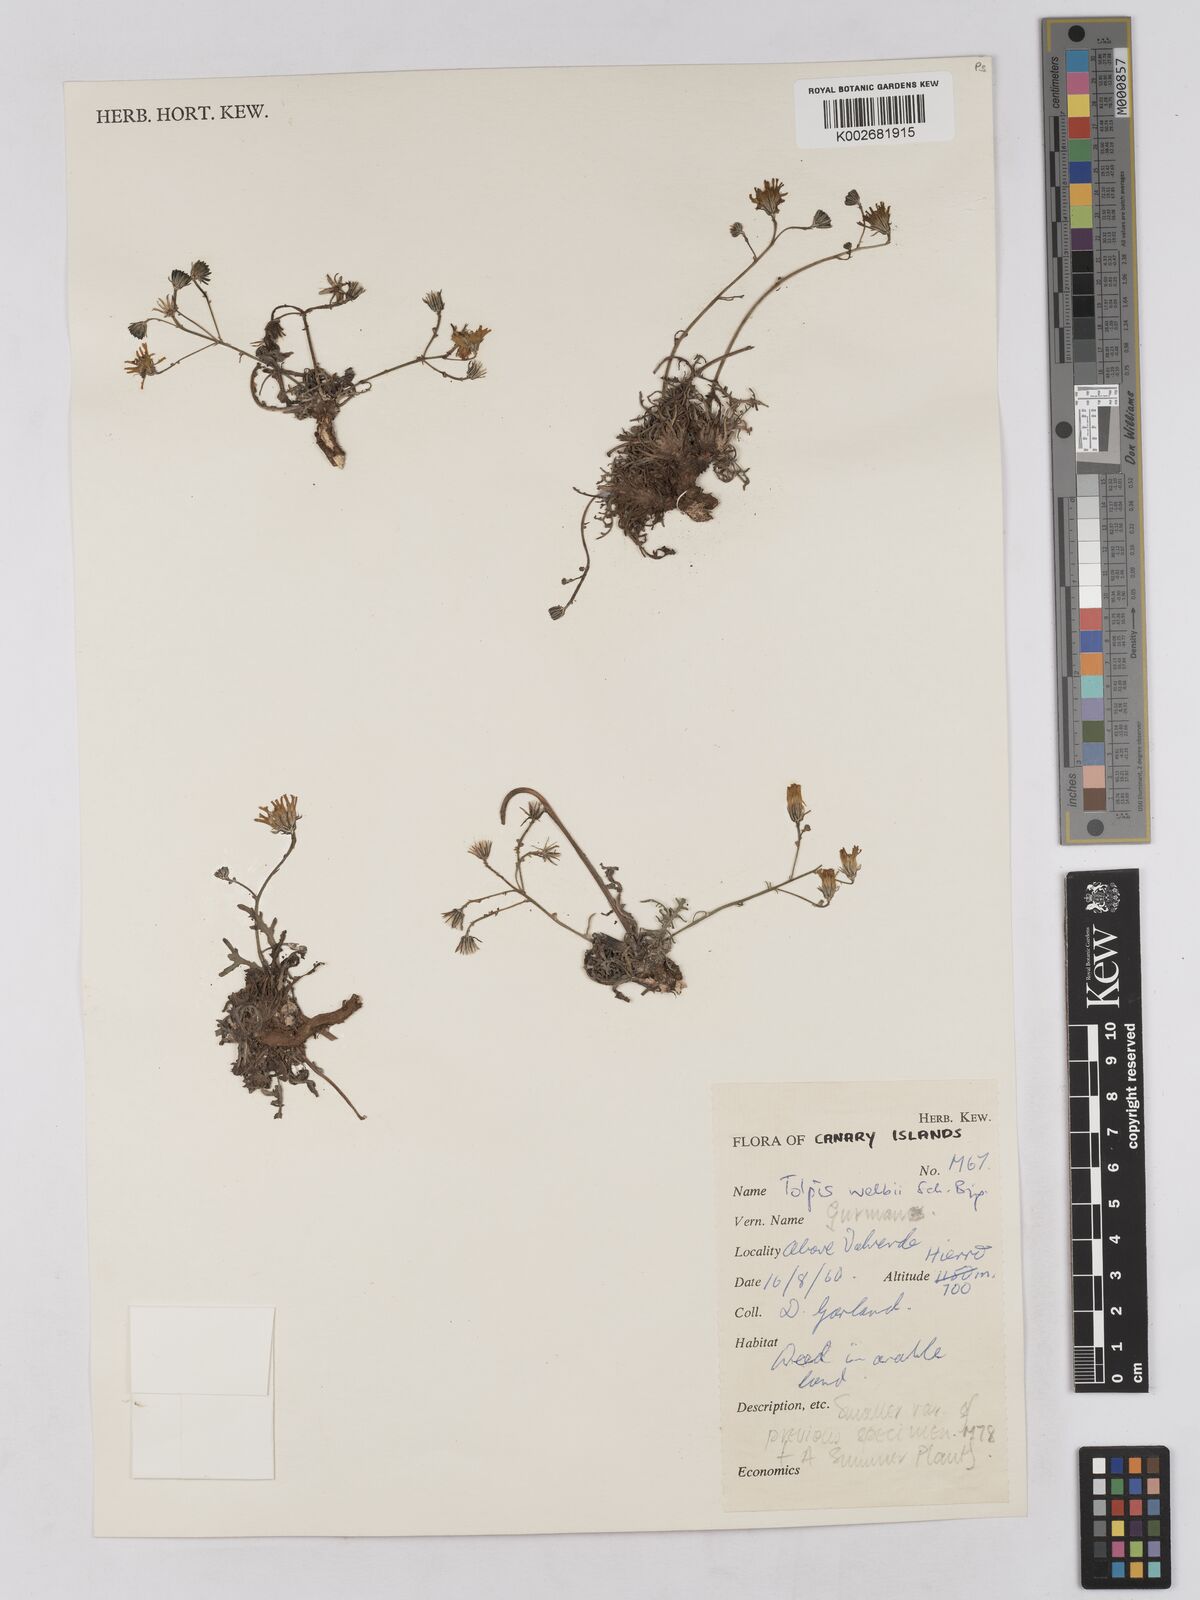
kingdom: Plantae
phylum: Tracheophyta
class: Magnoliopsida
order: Asterales
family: Asteraceae
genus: Tolpis
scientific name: Tolpis laciniata
